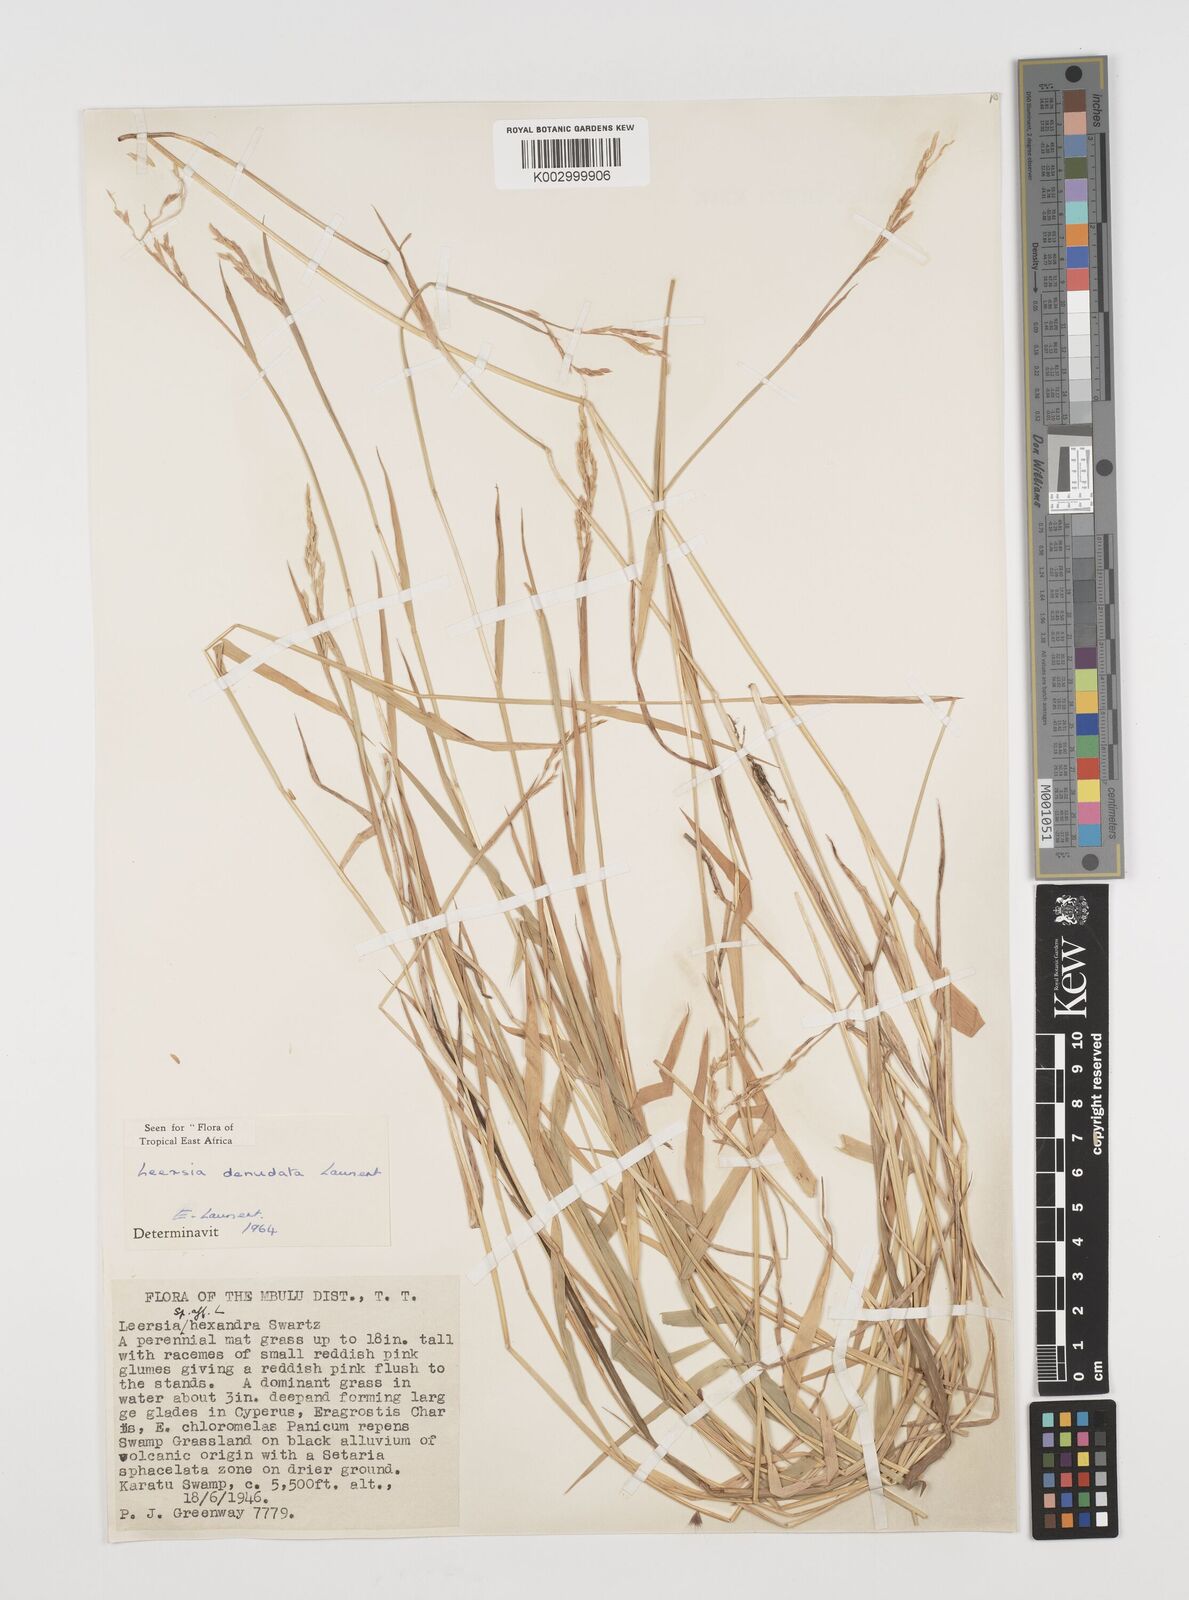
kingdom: Plantae
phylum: Tracheophyta
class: Liliopsida
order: Poales
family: Poaceae
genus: Leersia
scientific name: Leersia denudata
